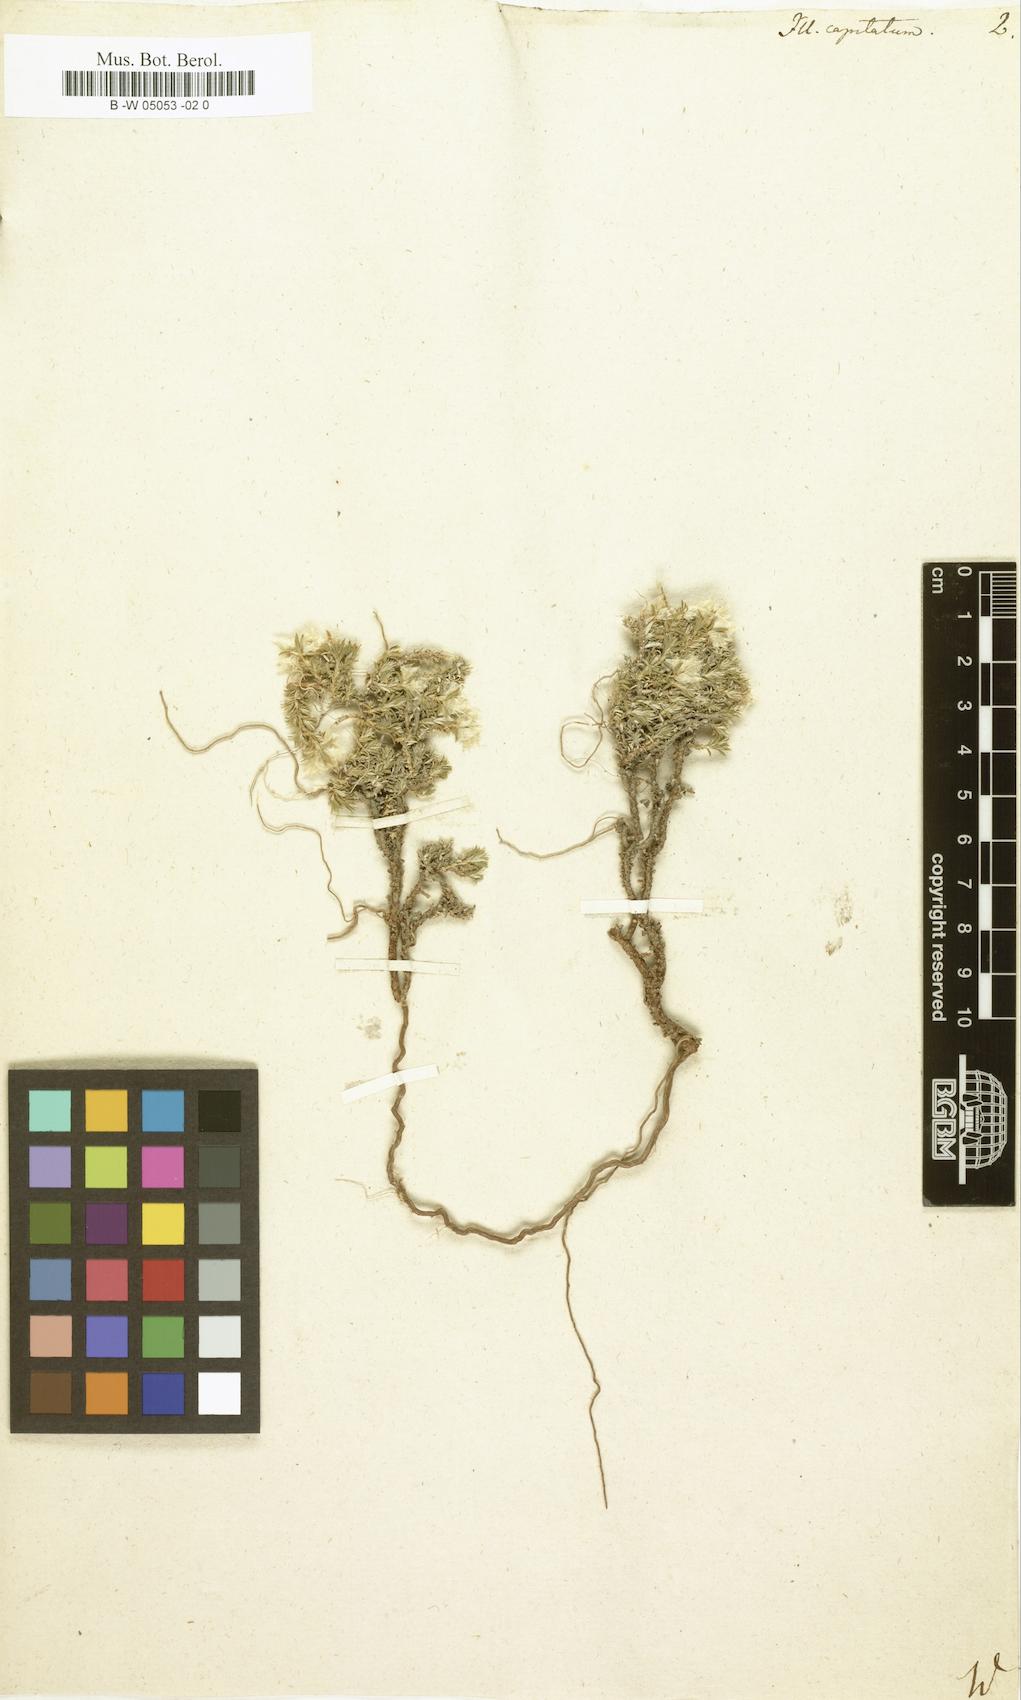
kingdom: Plantae
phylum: Tracheophyta
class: Magnoliopsida
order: Caryophyllales
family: Caryophyllaceae
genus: Paronychia
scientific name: Paronychia capitata
